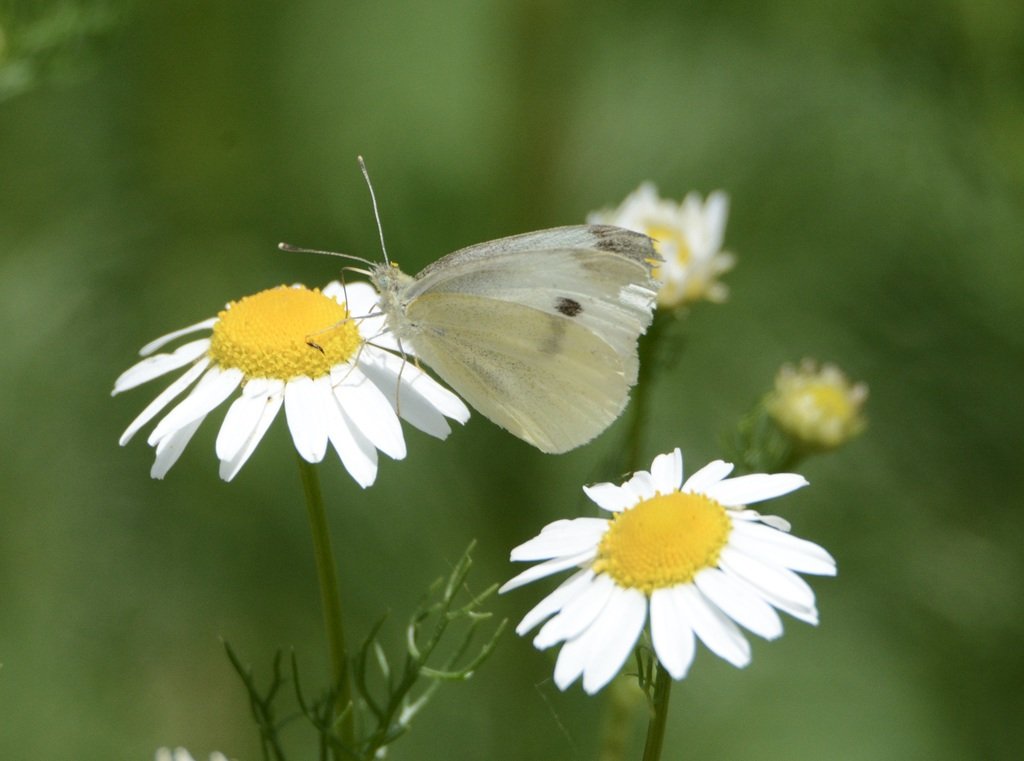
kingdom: Animalia
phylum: Arthropoda
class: Insecta
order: Lepidoptera
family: Pieridae
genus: Pieris
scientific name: Pieris rapae
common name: Cabbage White
